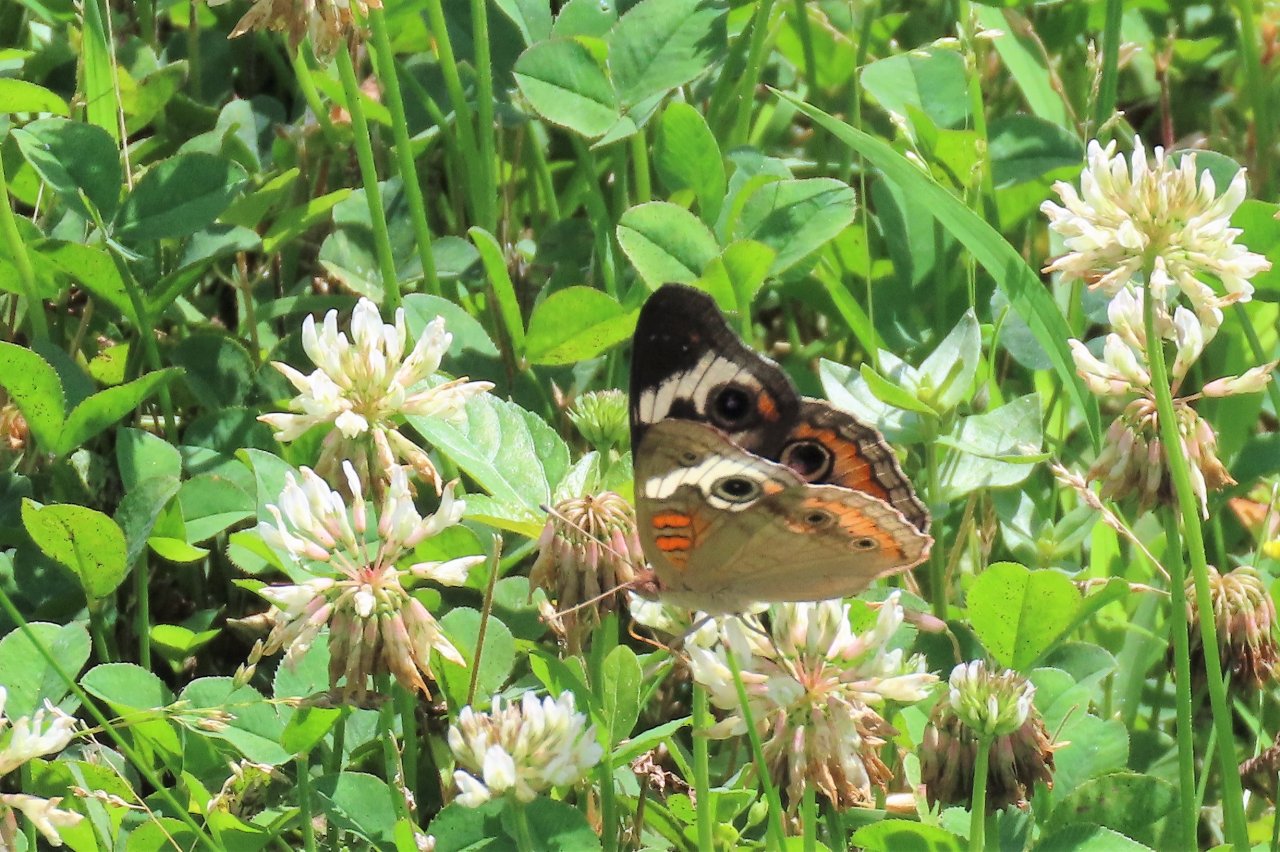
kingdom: Animalia
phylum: Arthropoda
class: Insecta
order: Lepidoptera
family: Nymphalidae
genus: Junonia
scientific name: Junonia coenia
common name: Common Buckeye
